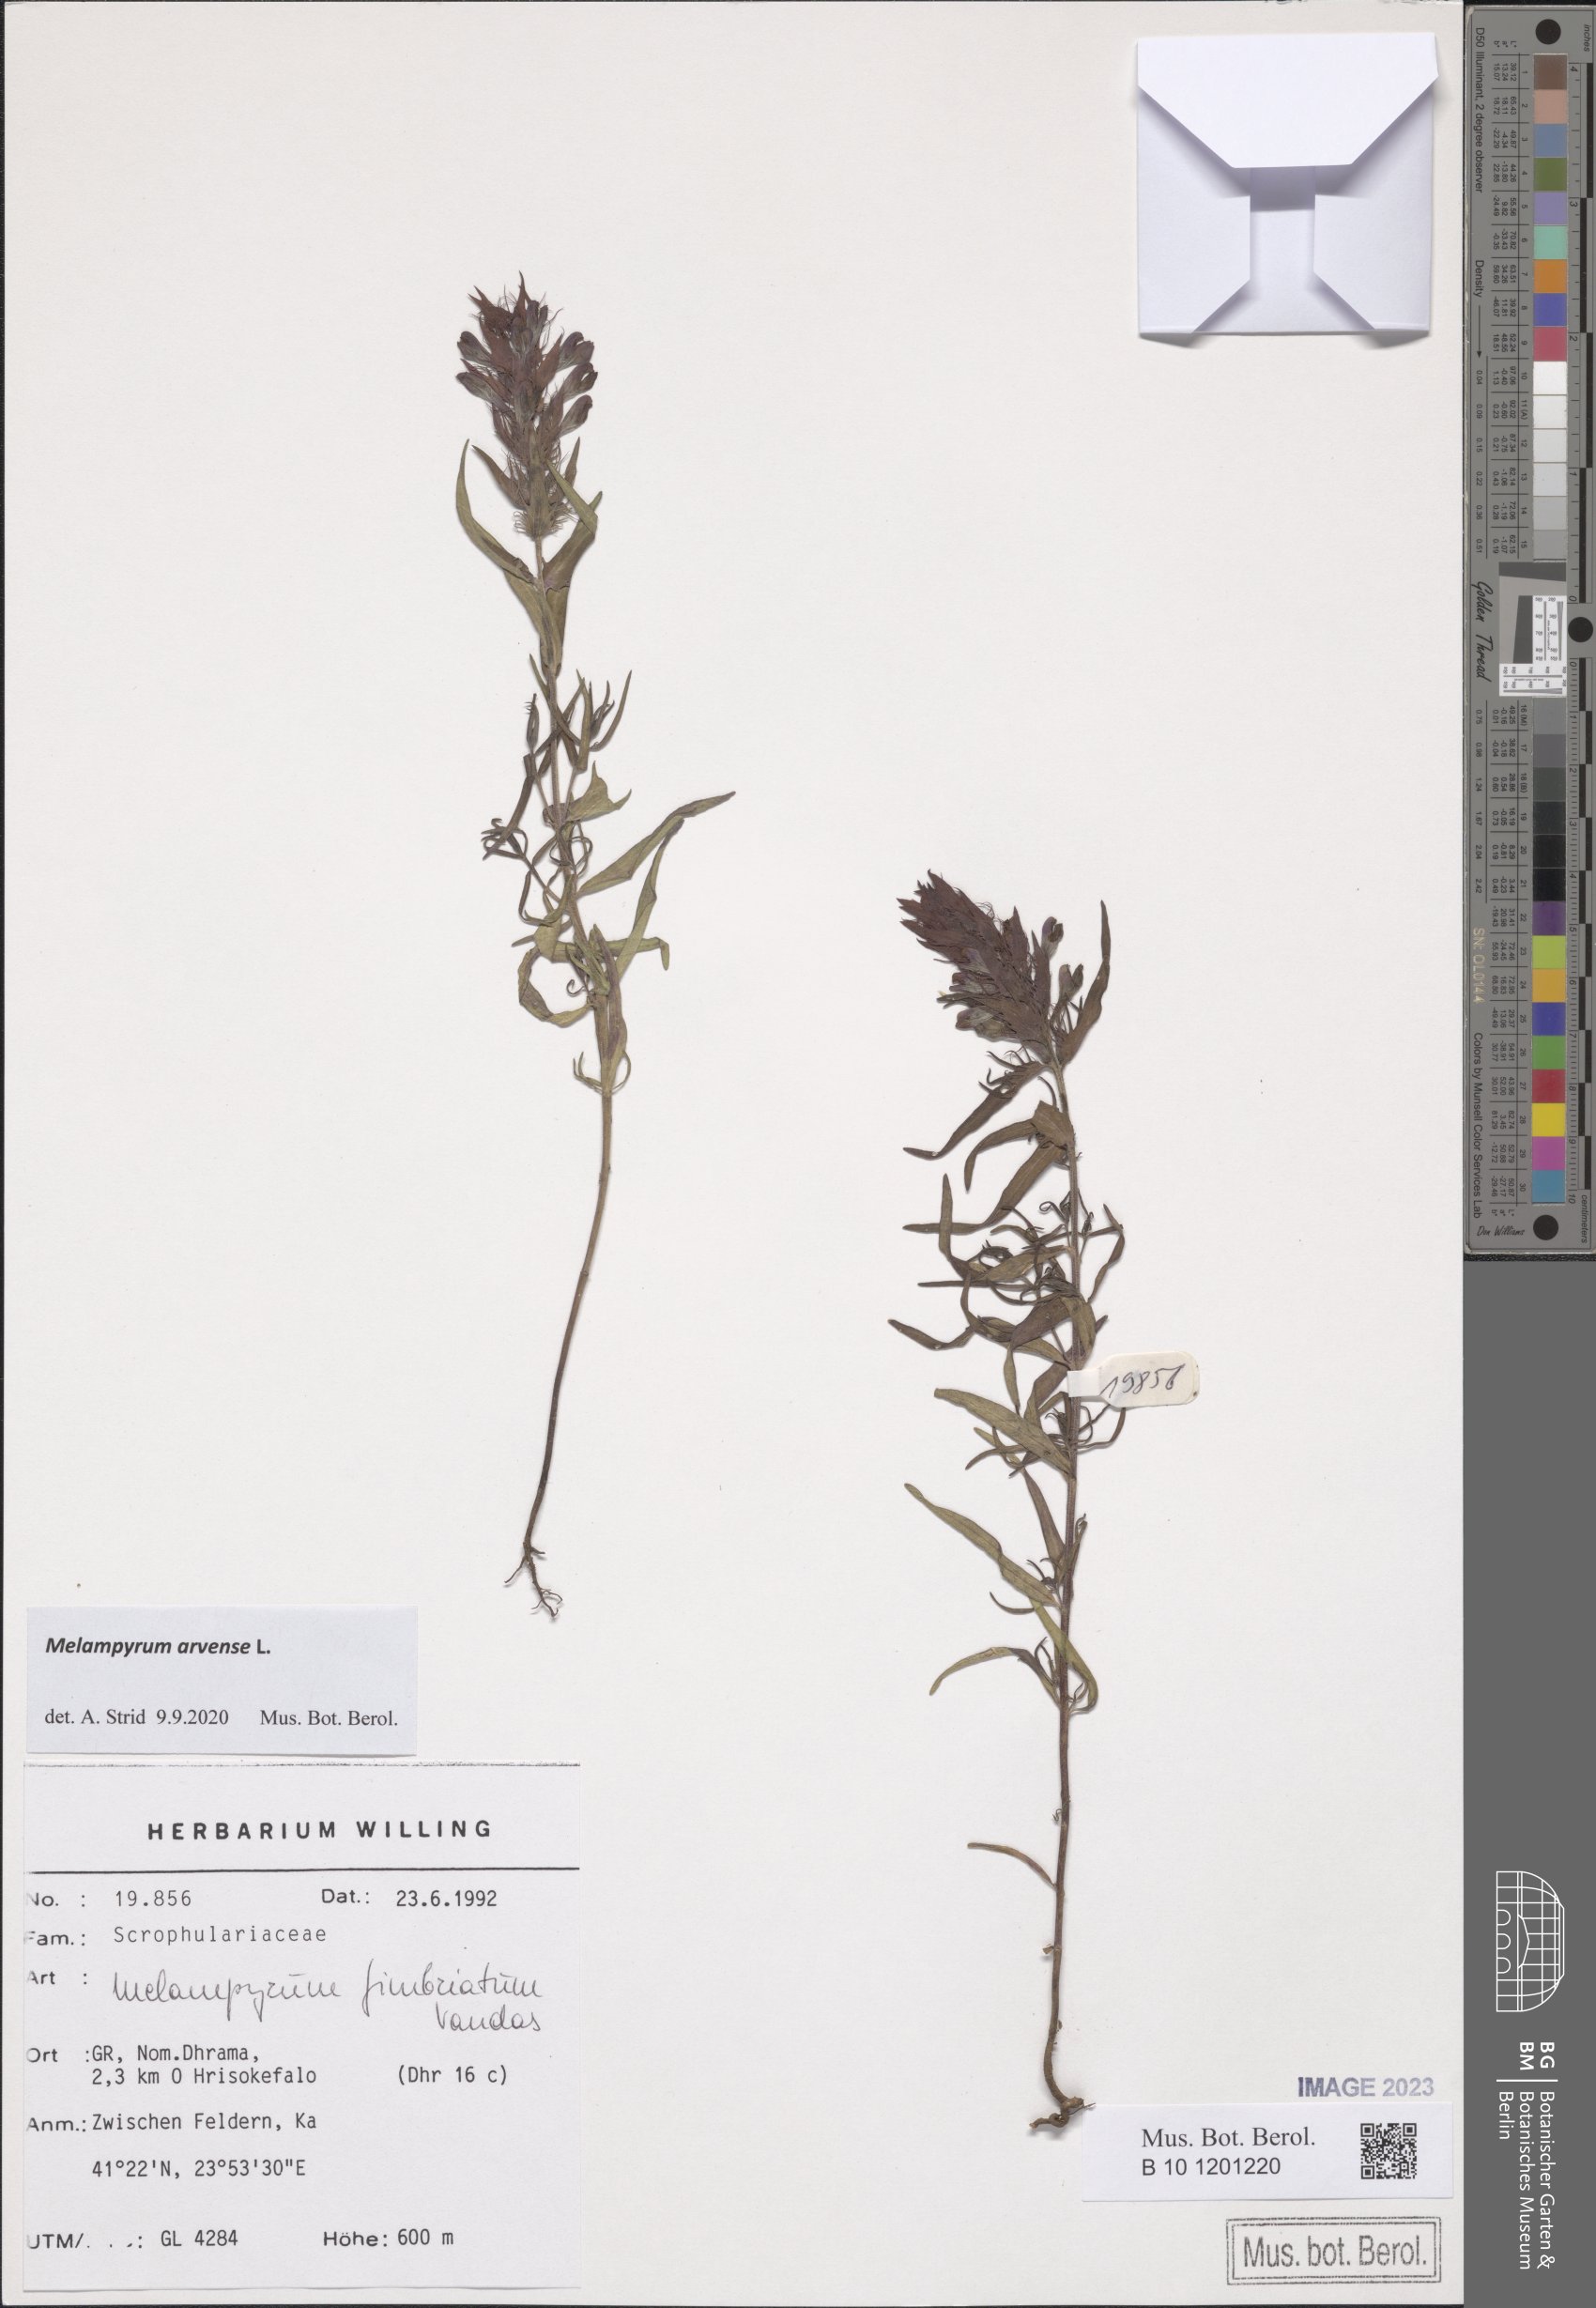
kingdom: Plantae
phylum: Tracheophyta
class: Magnoliopsida
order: Lamiales
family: Orobanchaceae
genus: Melampyrum
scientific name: Melampyrum arvense
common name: Field cow-wheat
